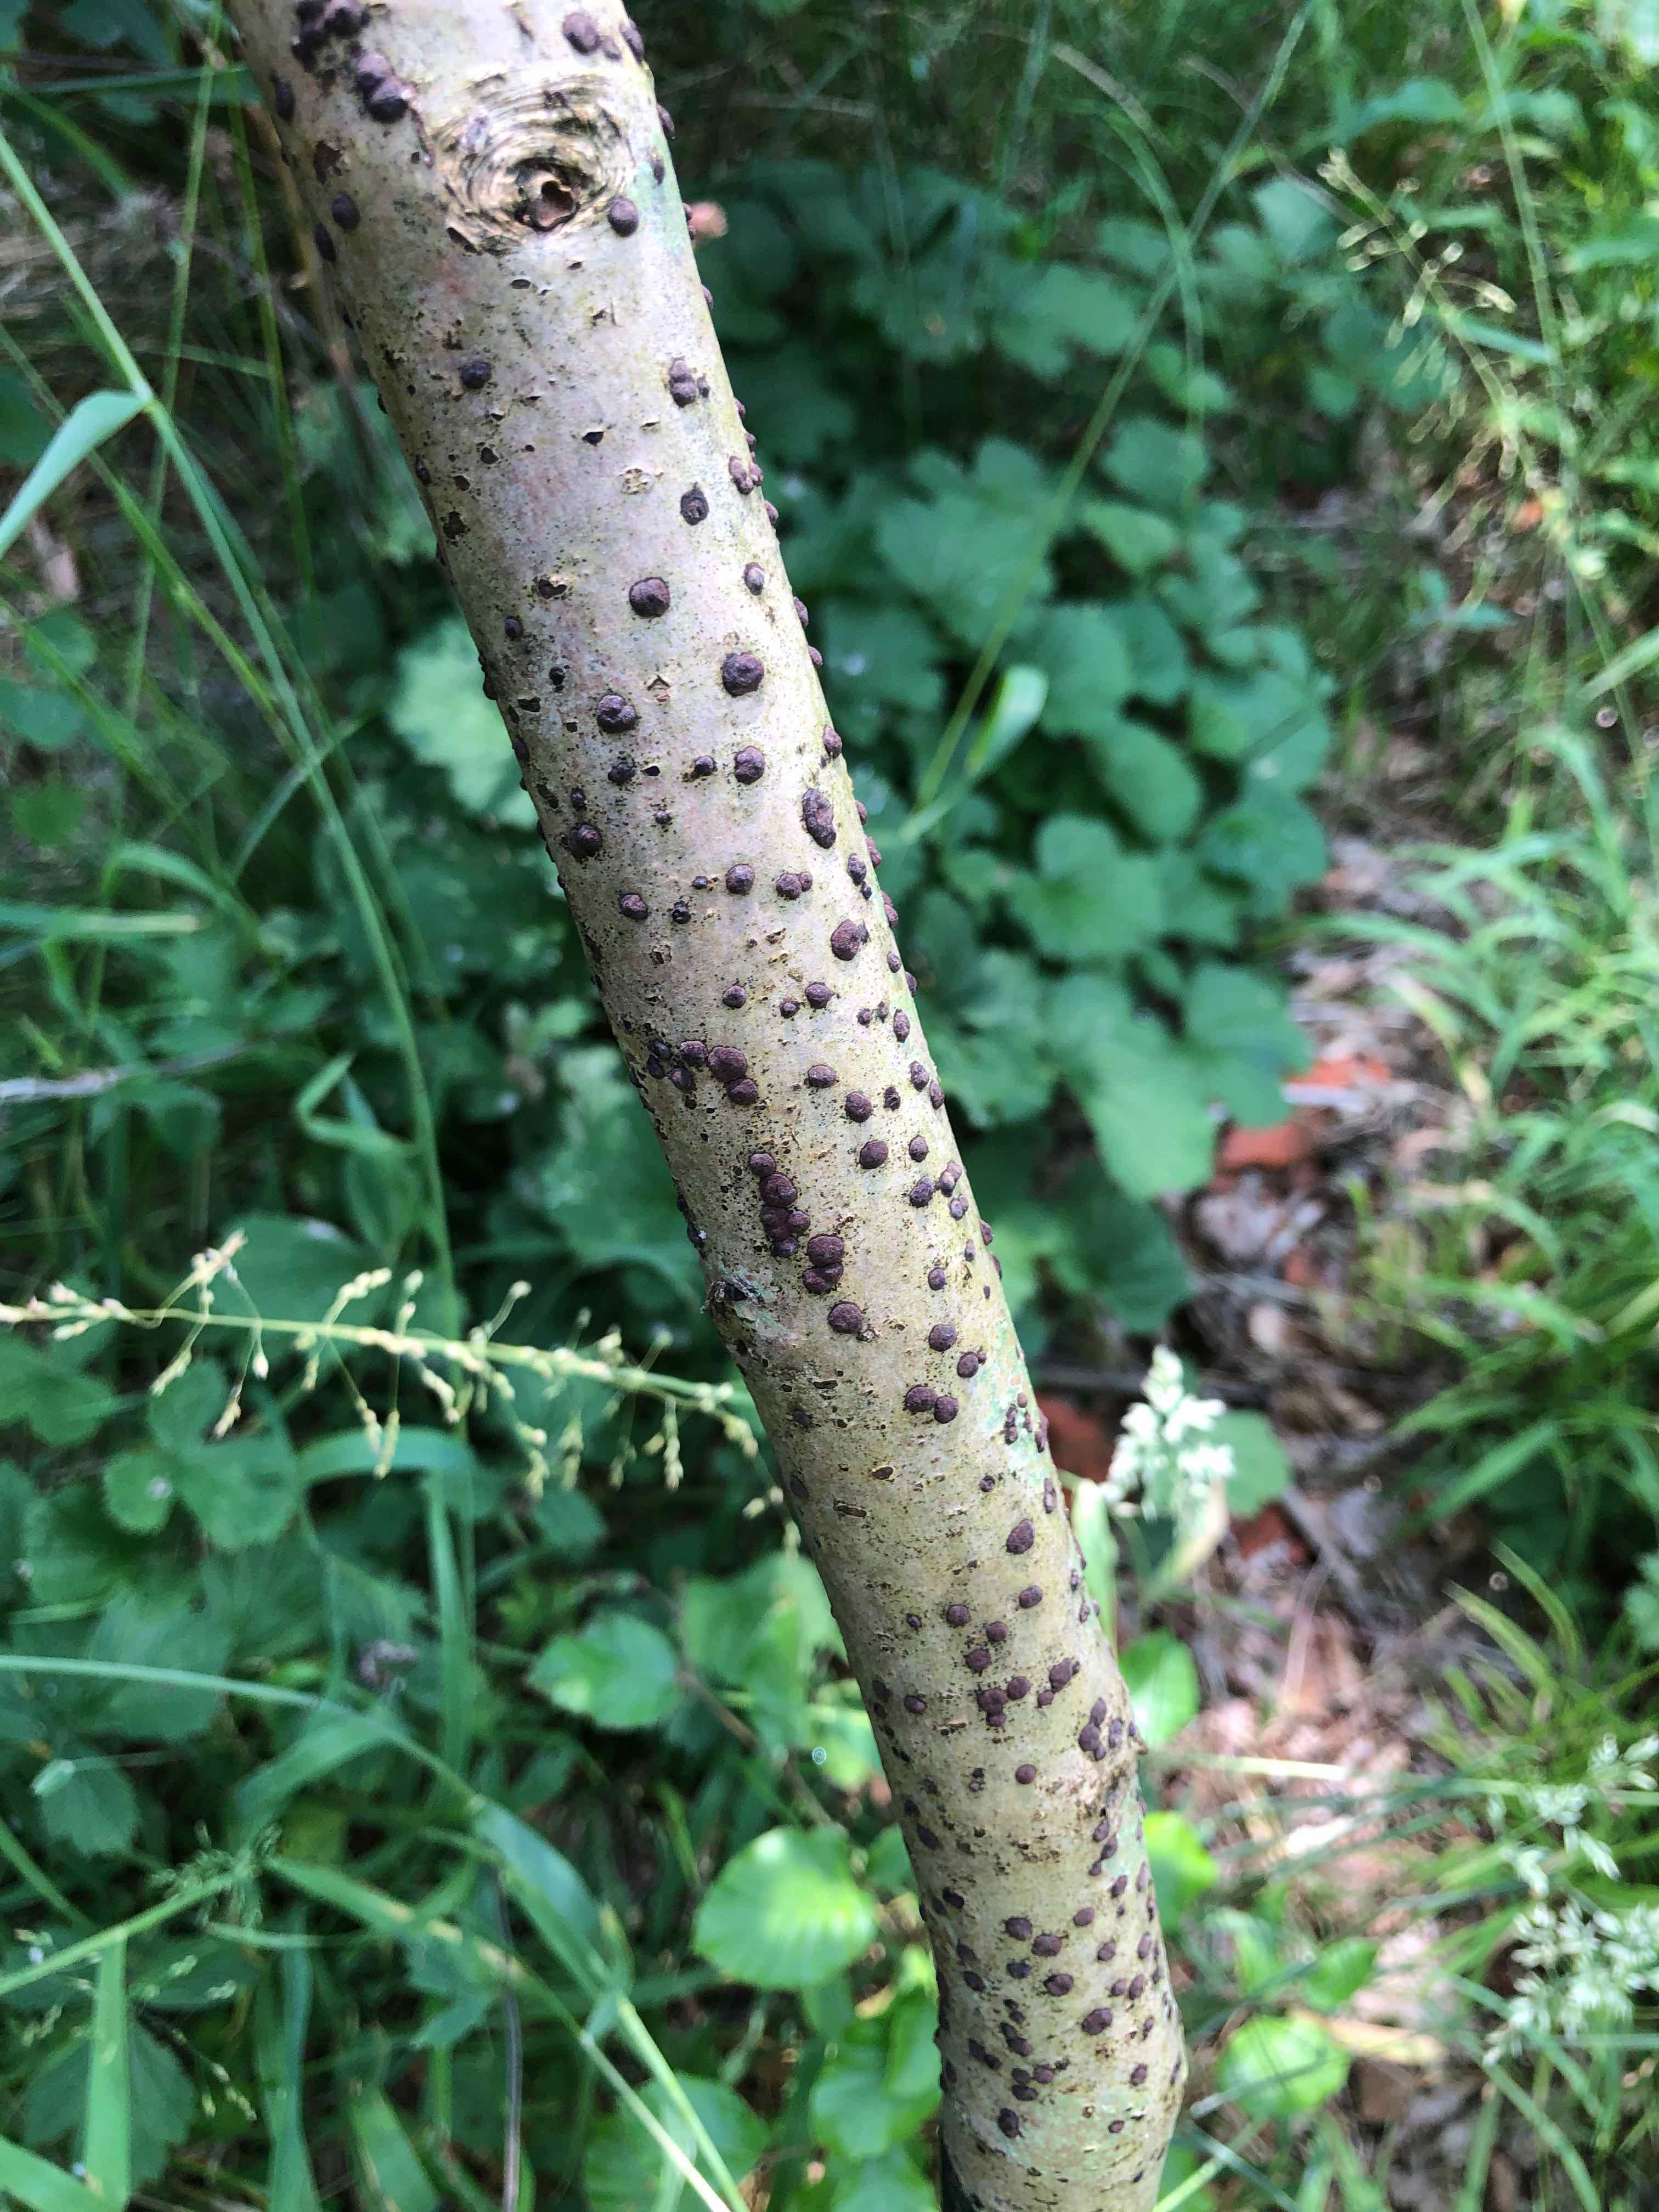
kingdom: Fungi
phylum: Ascomycota
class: Sordariomycetes
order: Xylariales
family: Hypoxylaceae
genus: Hypoxylon
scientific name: Hypoxylon fuscum
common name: kegleformet kulbær
